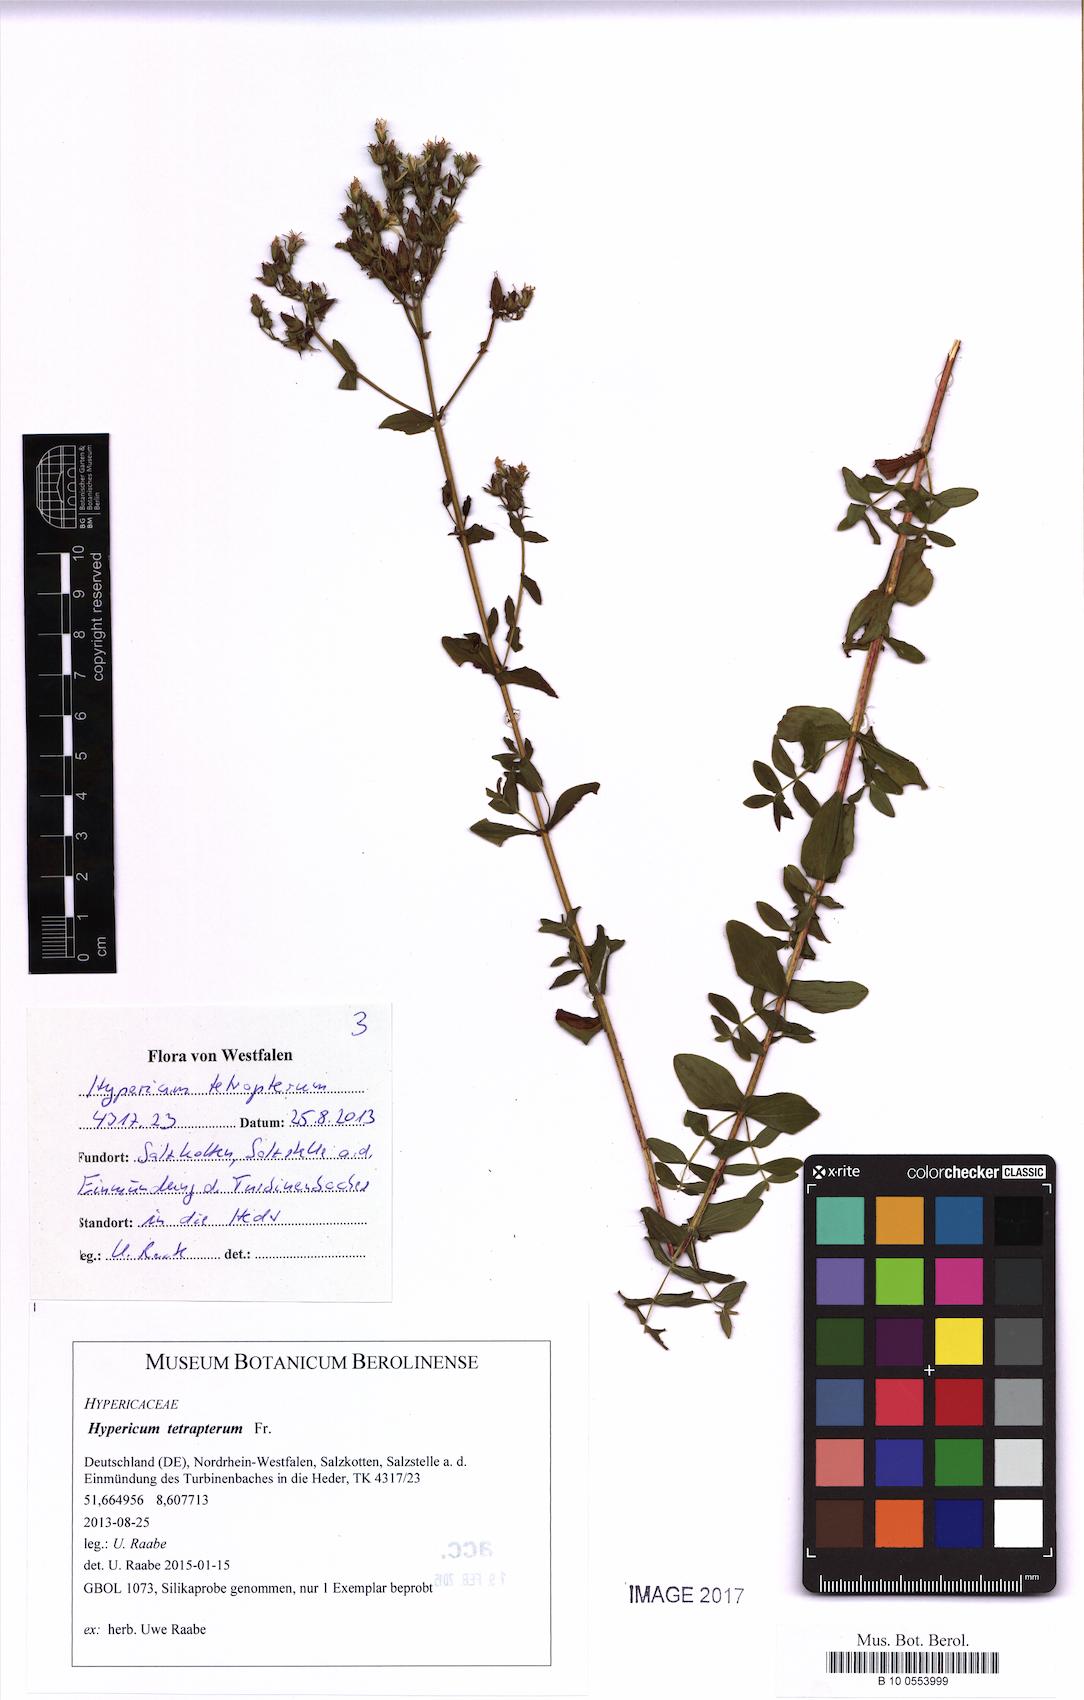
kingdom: Plantae
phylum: Tracheophyta
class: Magnoliopsida
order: Malpighiales
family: Hypericaceae
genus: Hypericum
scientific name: Hypericum tetrapterum
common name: Square-stalked st. john's-wort
